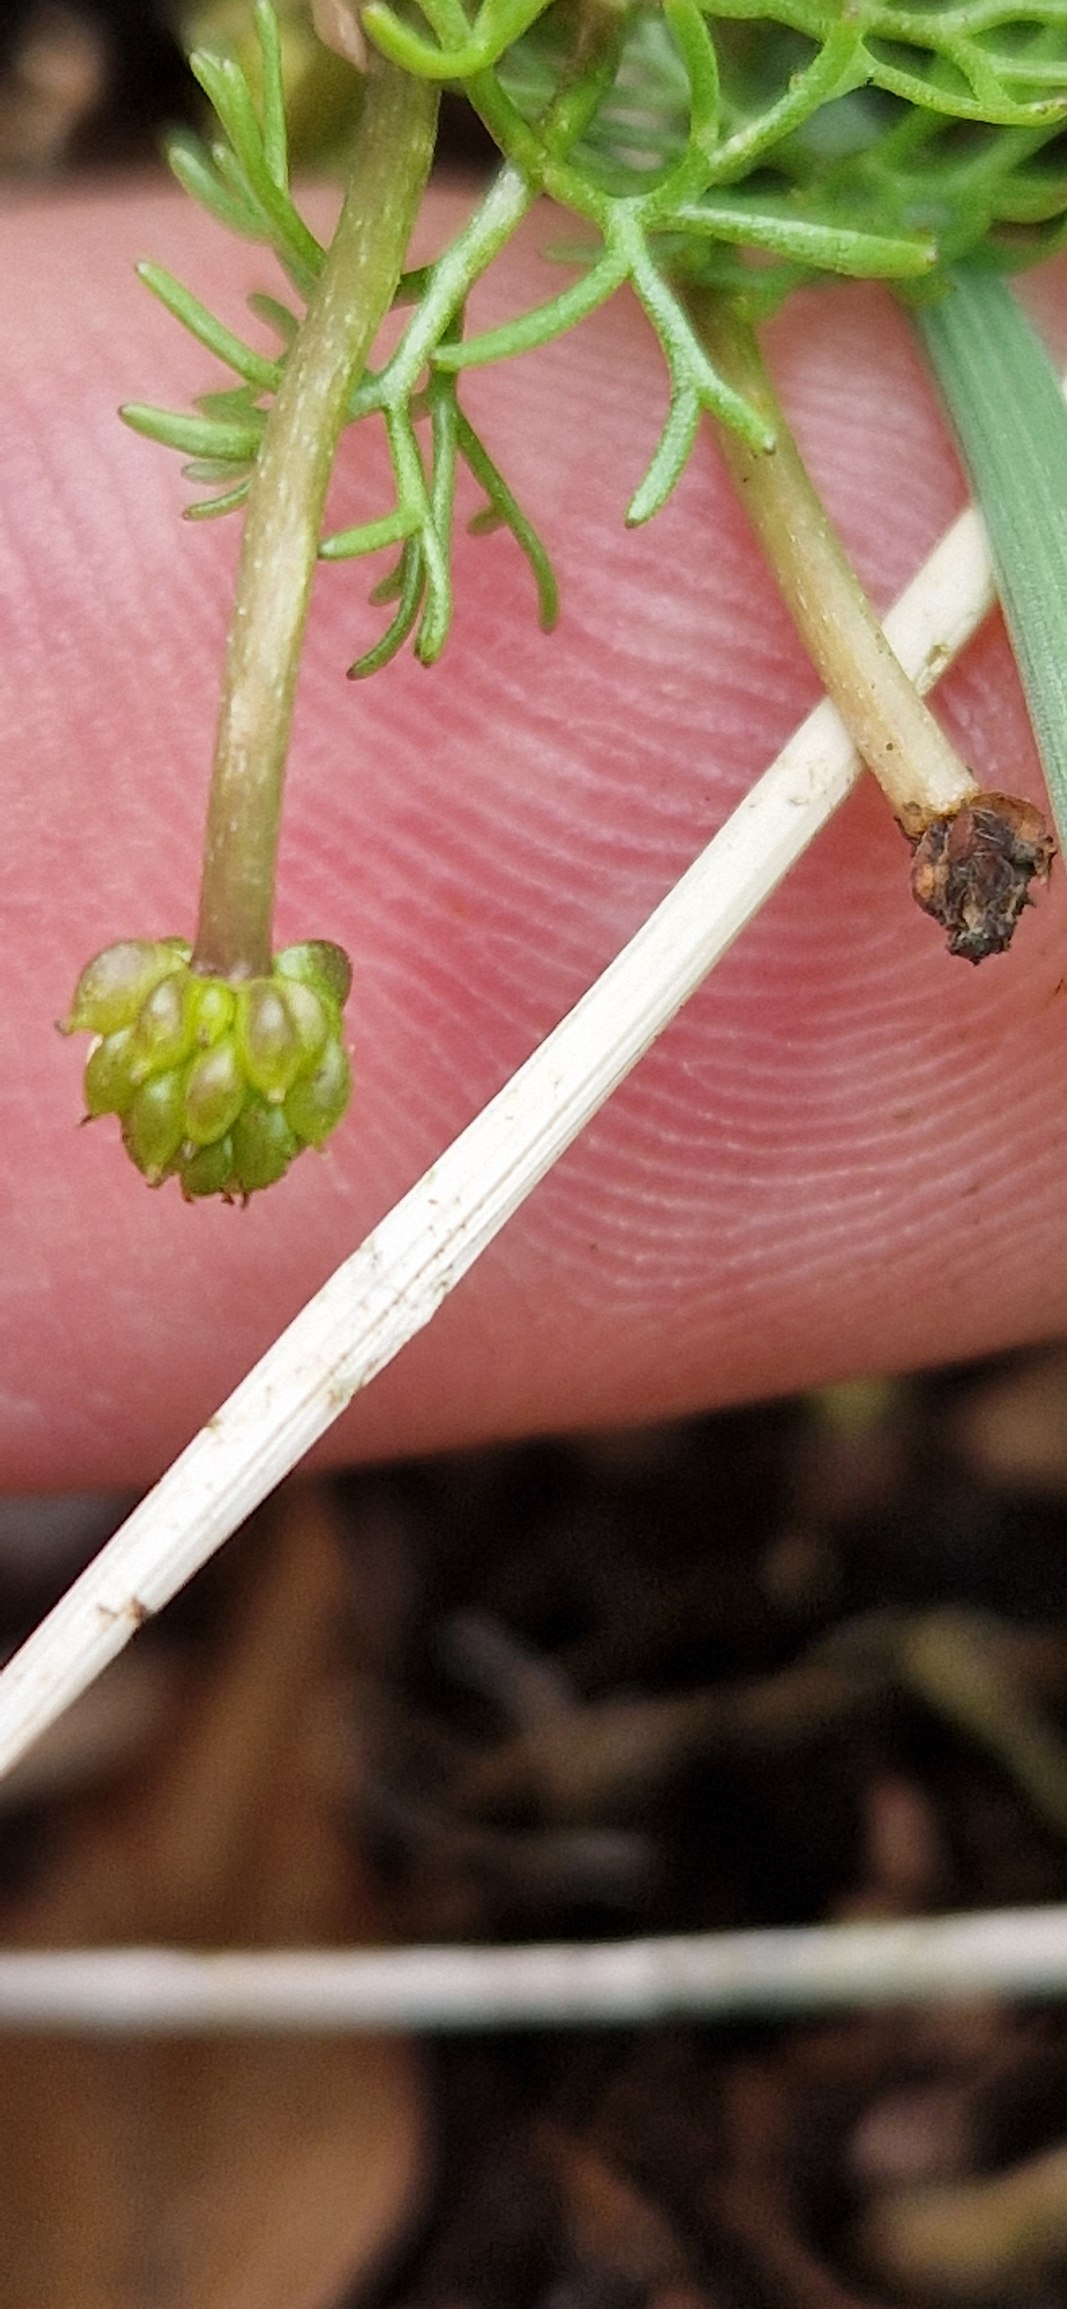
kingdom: Plantae
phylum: Tracheophyta
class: Magnoliopsida
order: Ranunculales
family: Ranunculaceae
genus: Ranunculus
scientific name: Ranunculus
